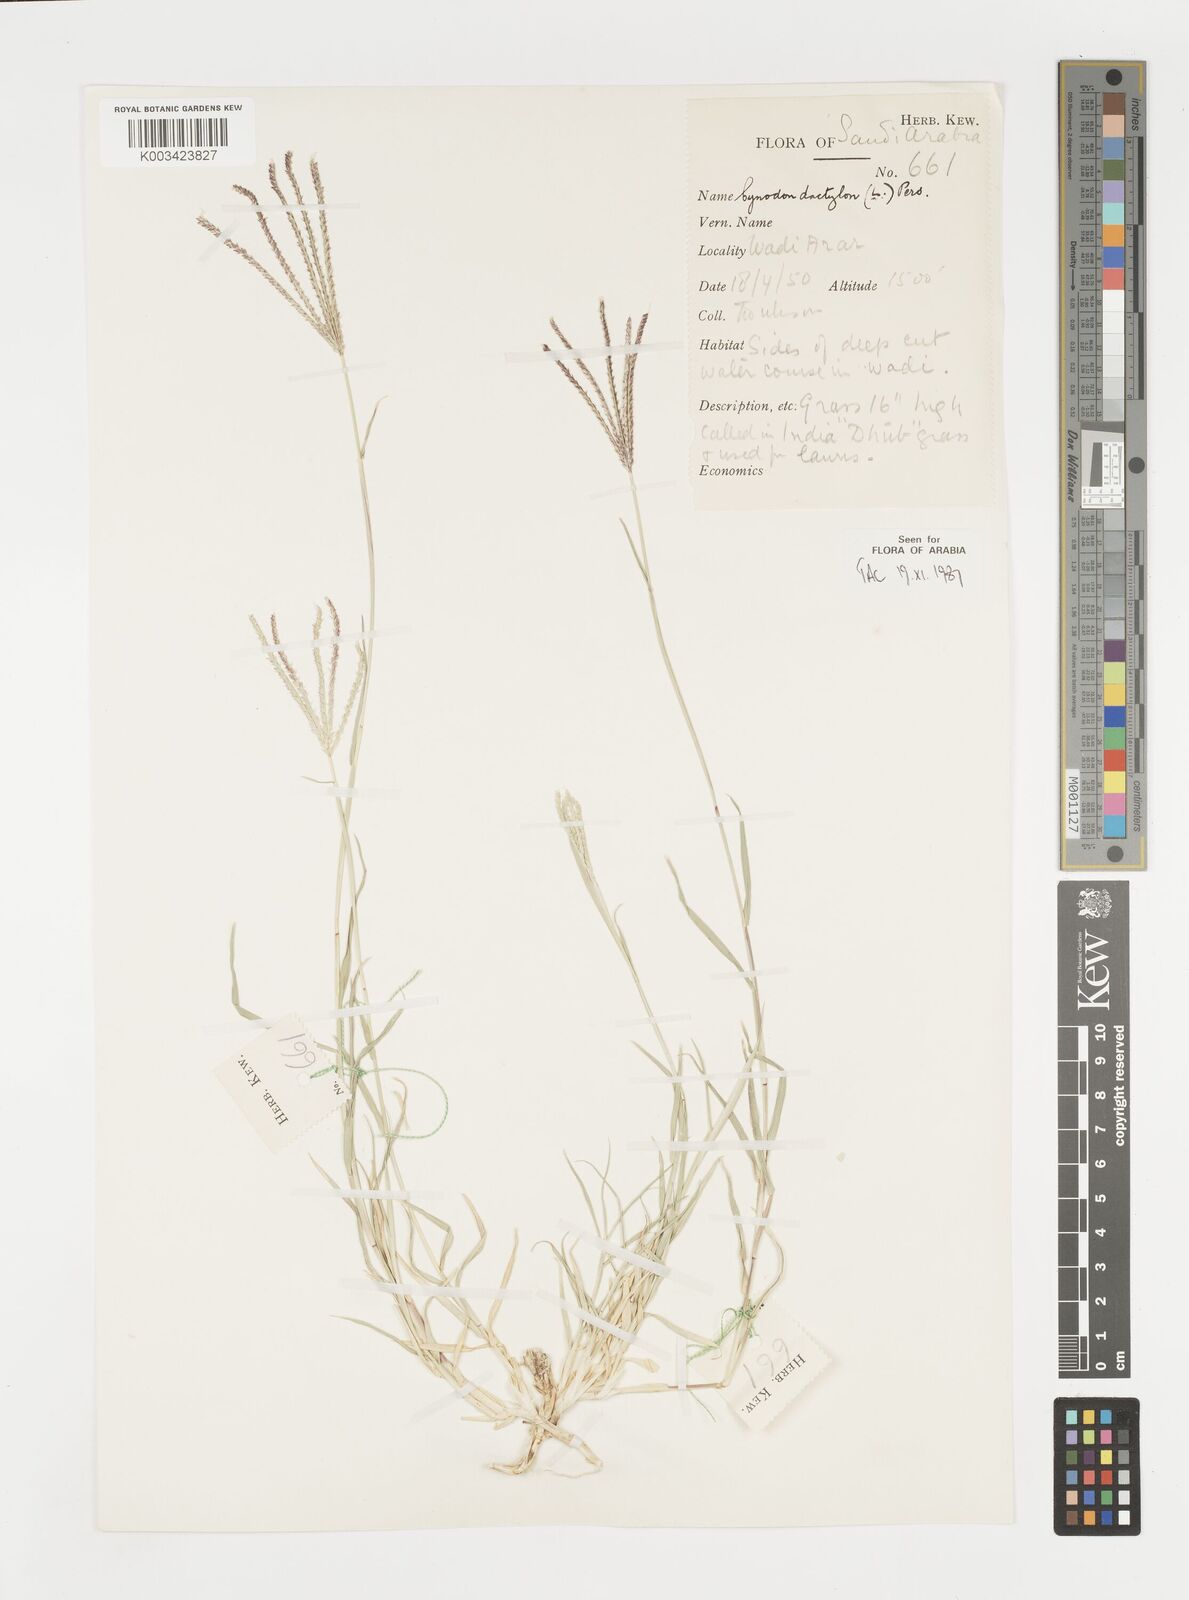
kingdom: Plantae
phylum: Tracheophyta
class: Liliopsida
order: Poales
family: Poaceae
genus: Cynodon
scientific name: Cynodon dactylon
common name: Bermuda grass
